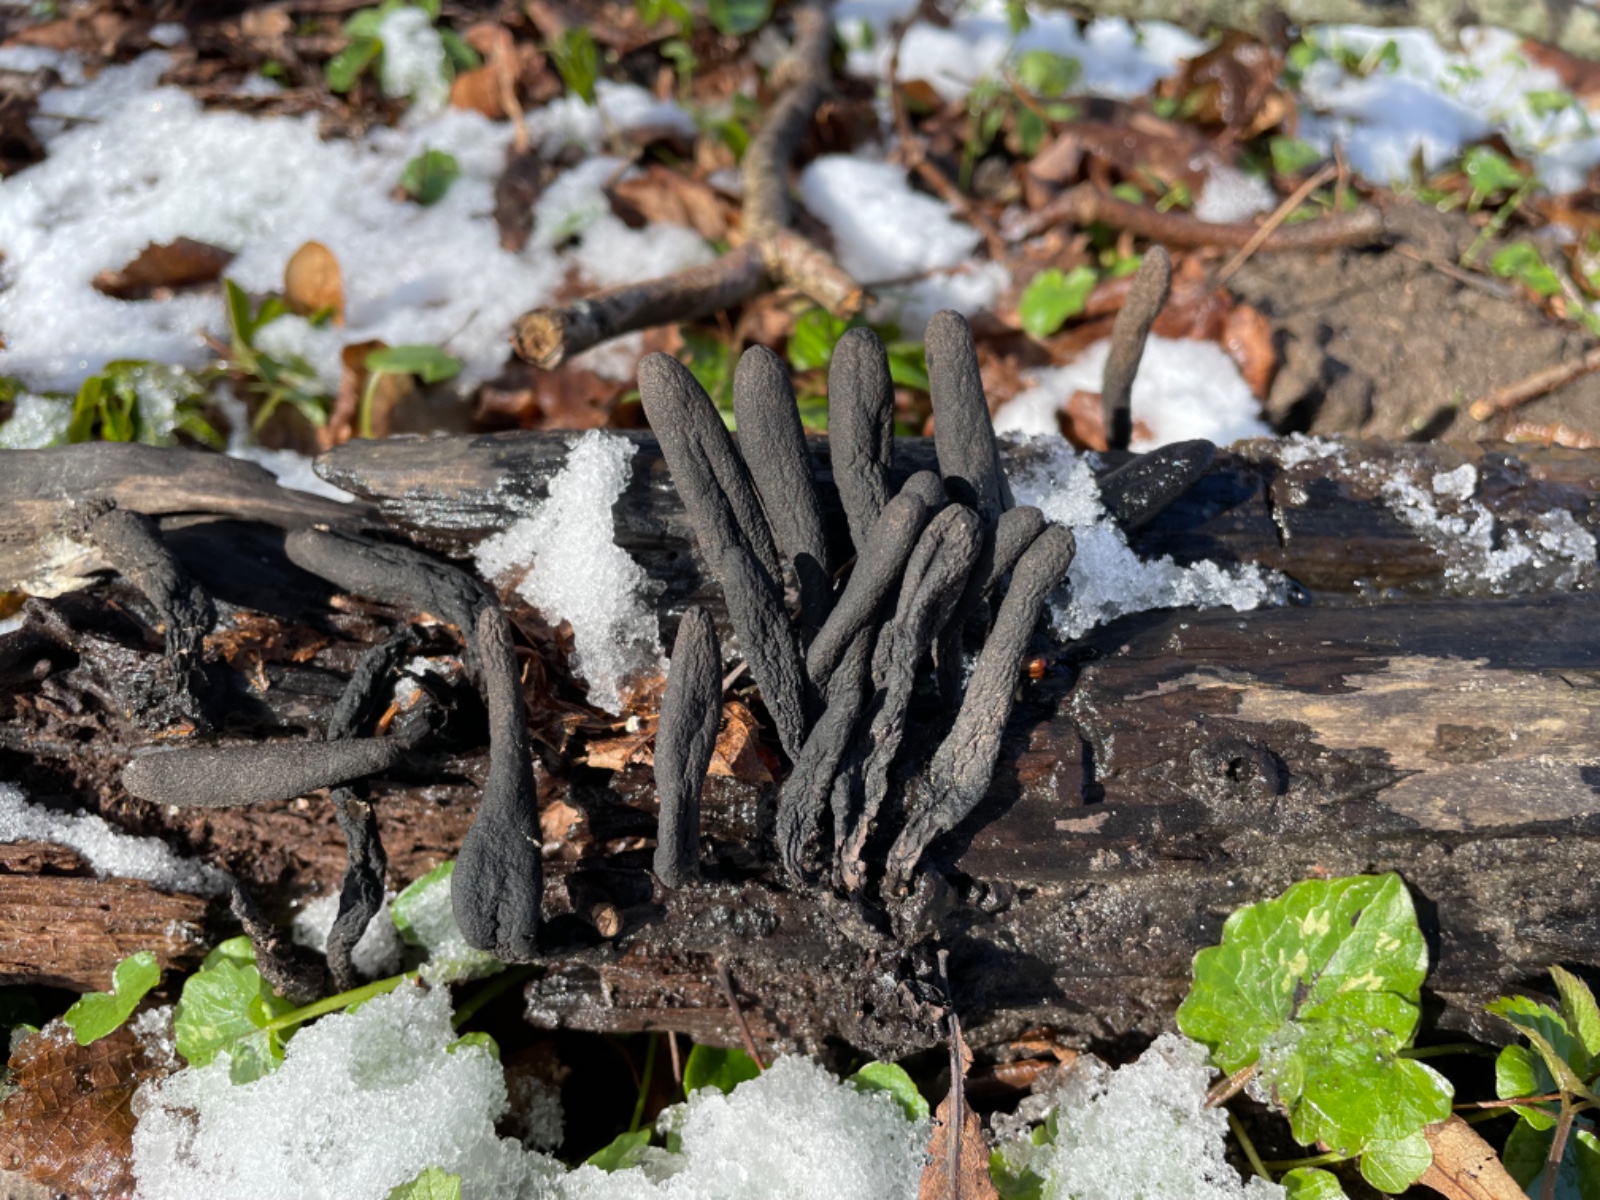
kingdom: Fungi
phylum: Ascomycota
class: Sordariomycetes
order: Xylariales
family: Xylariaceae
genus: Xylaria
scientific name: Xylaria longipes
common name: slank stødsvamp
